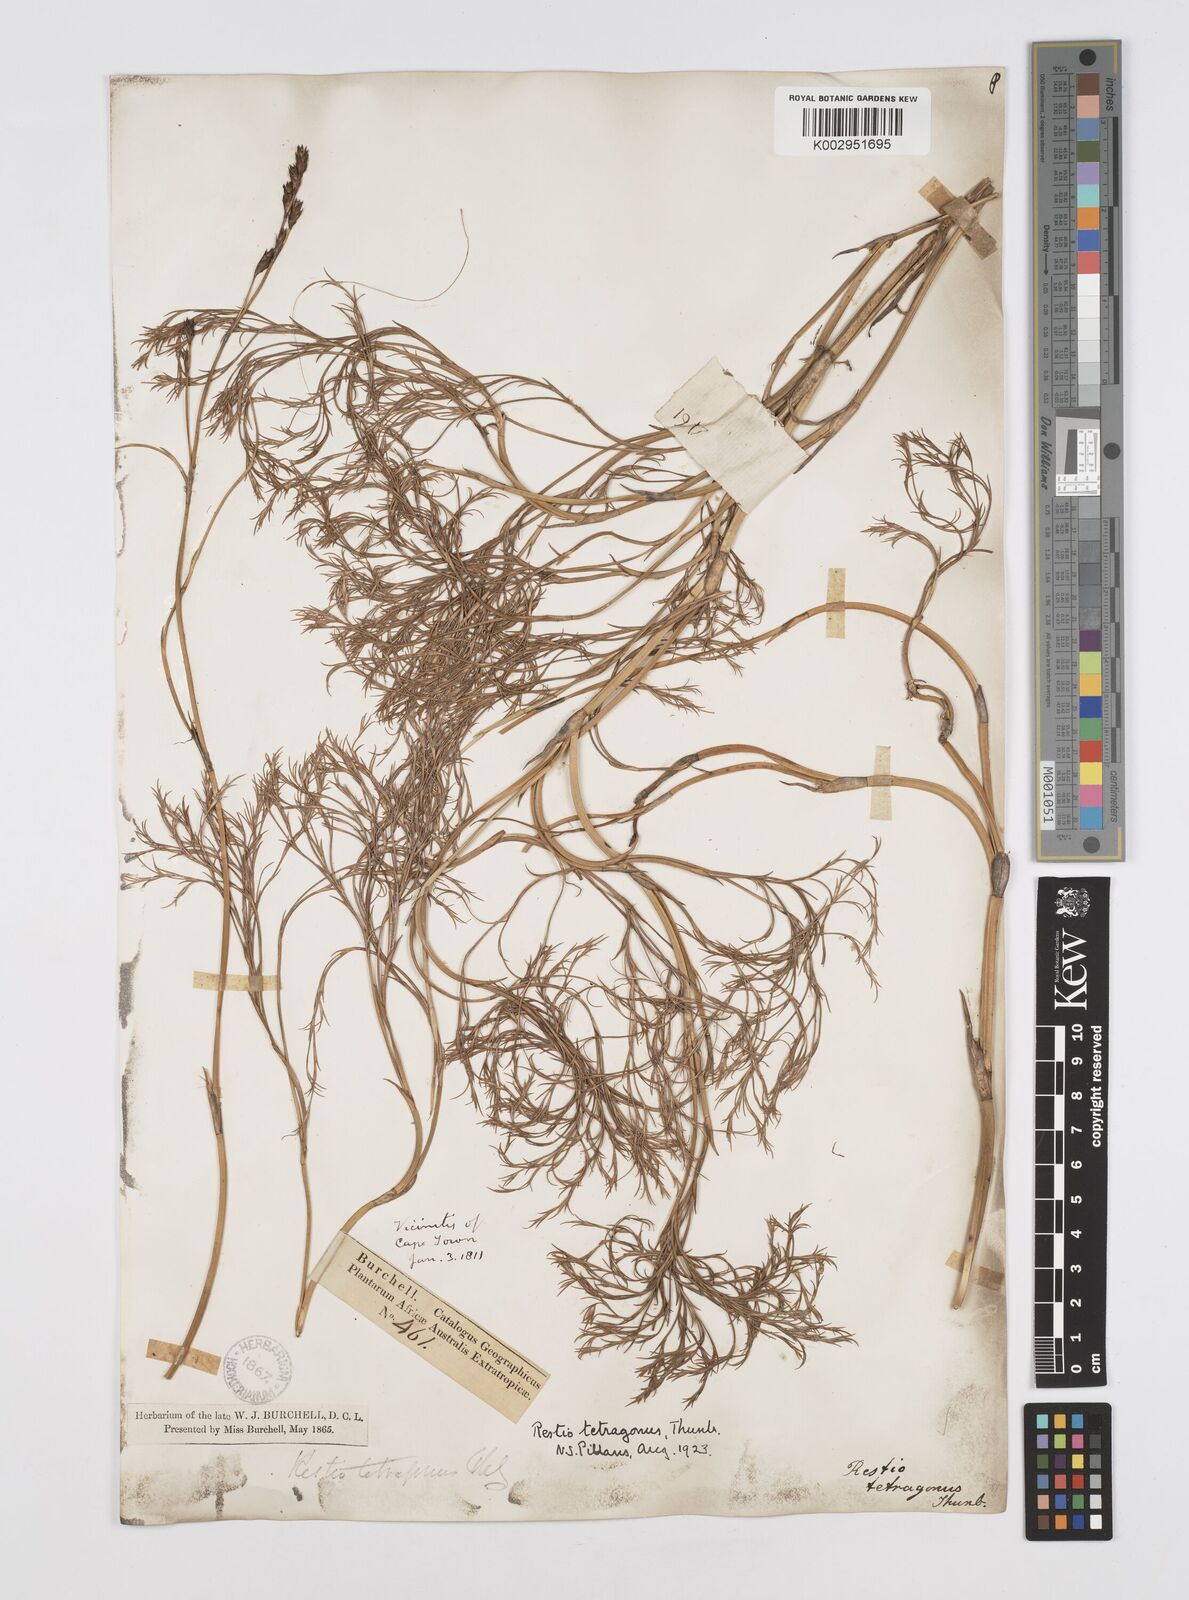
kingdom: Plantae
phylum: Tracheophyta
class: Liliopsida
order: Poales
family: Restionaceae
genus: Restio
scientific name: Restio tetragonus
